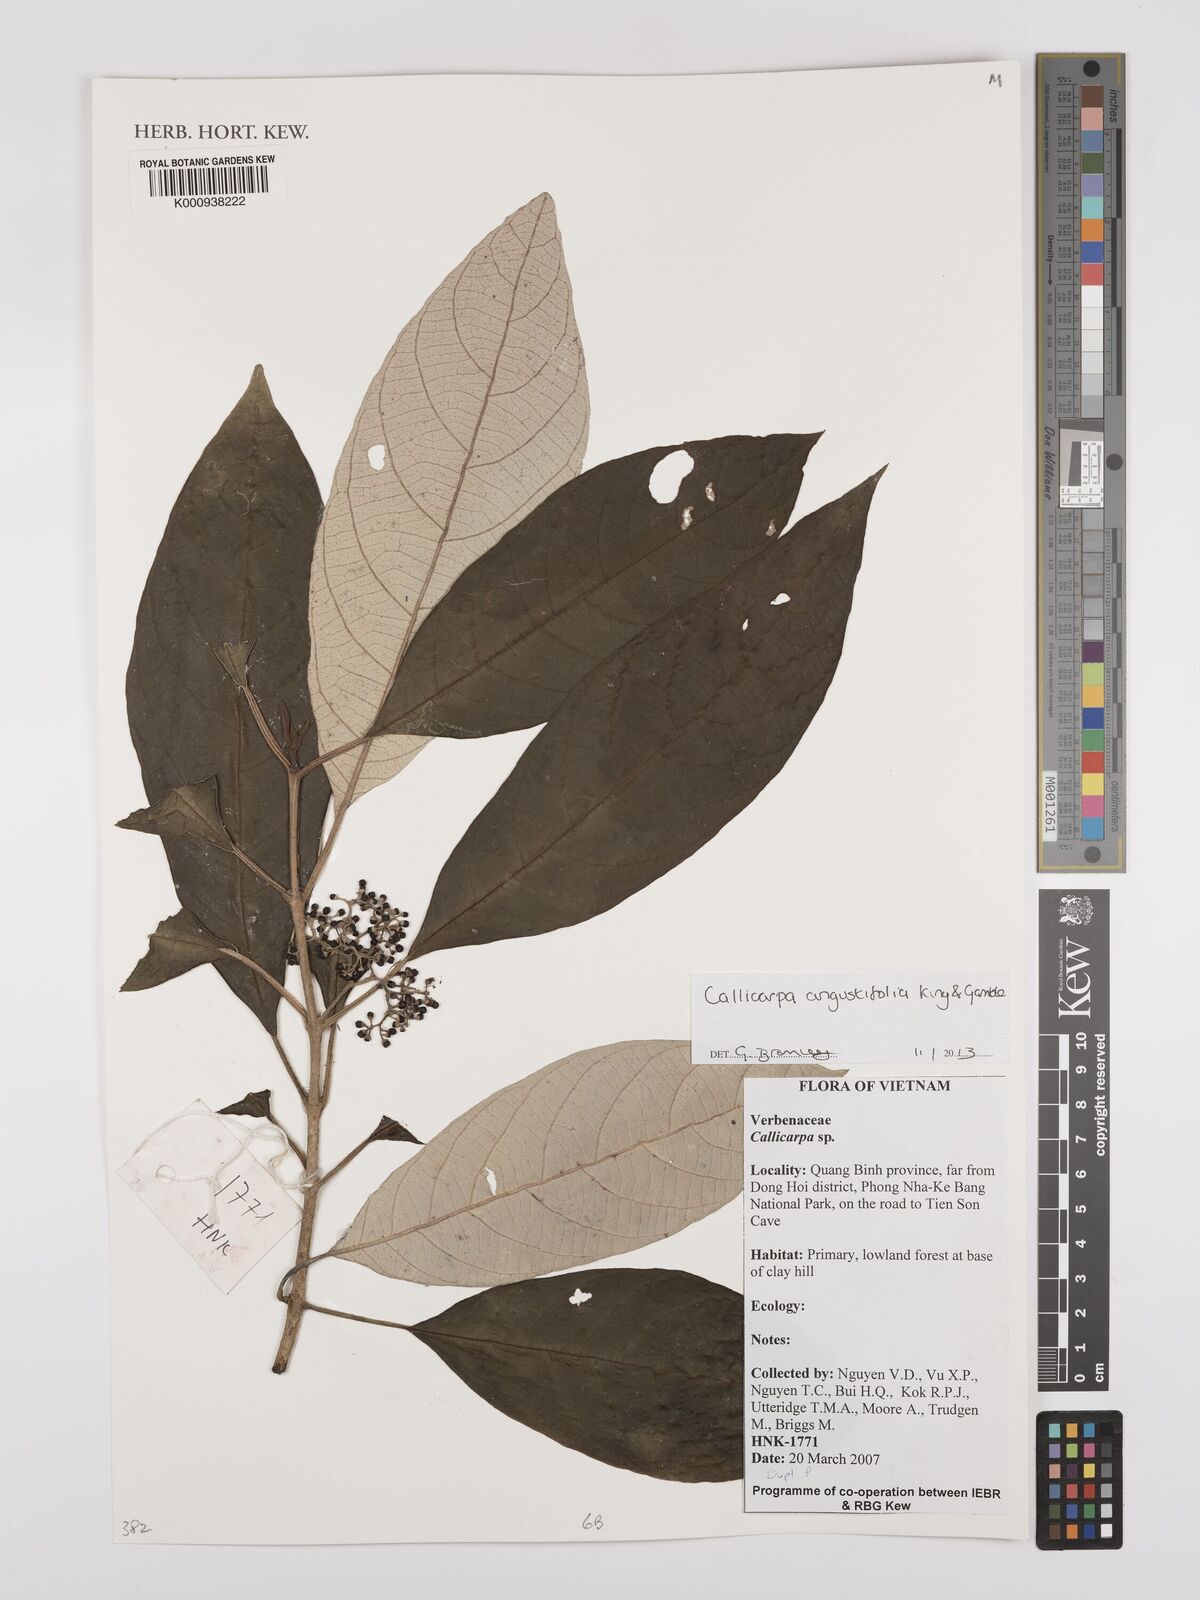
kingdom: Plantae
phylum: Tracheophyta
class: Magnoliopsida
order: Lamiales
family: Lamiaceae
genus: Callicarpa
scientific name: Callicarpa angustifolia
